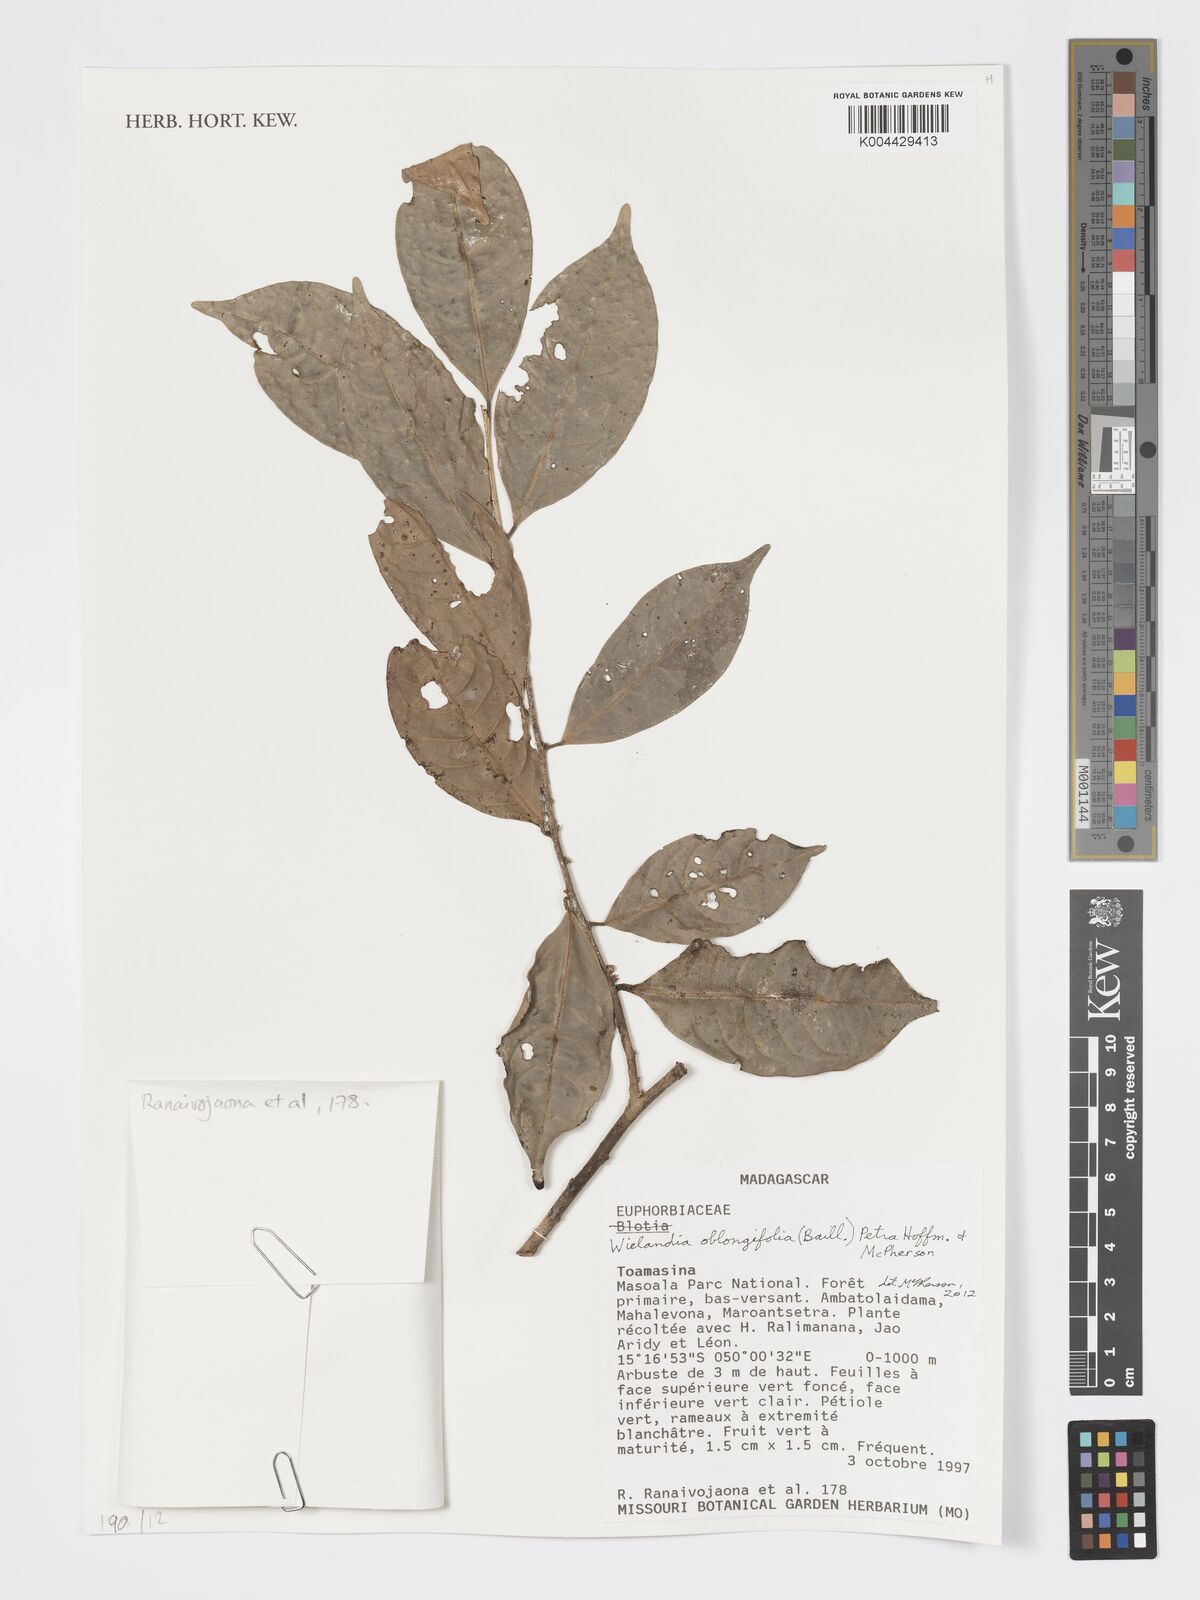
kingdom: Plantae
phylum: Tracheophyta
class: Magnoliopsida
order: Malpighiales
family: Phyllanthaceae
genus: Wielandia
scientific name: Wielandia oblongifolia
